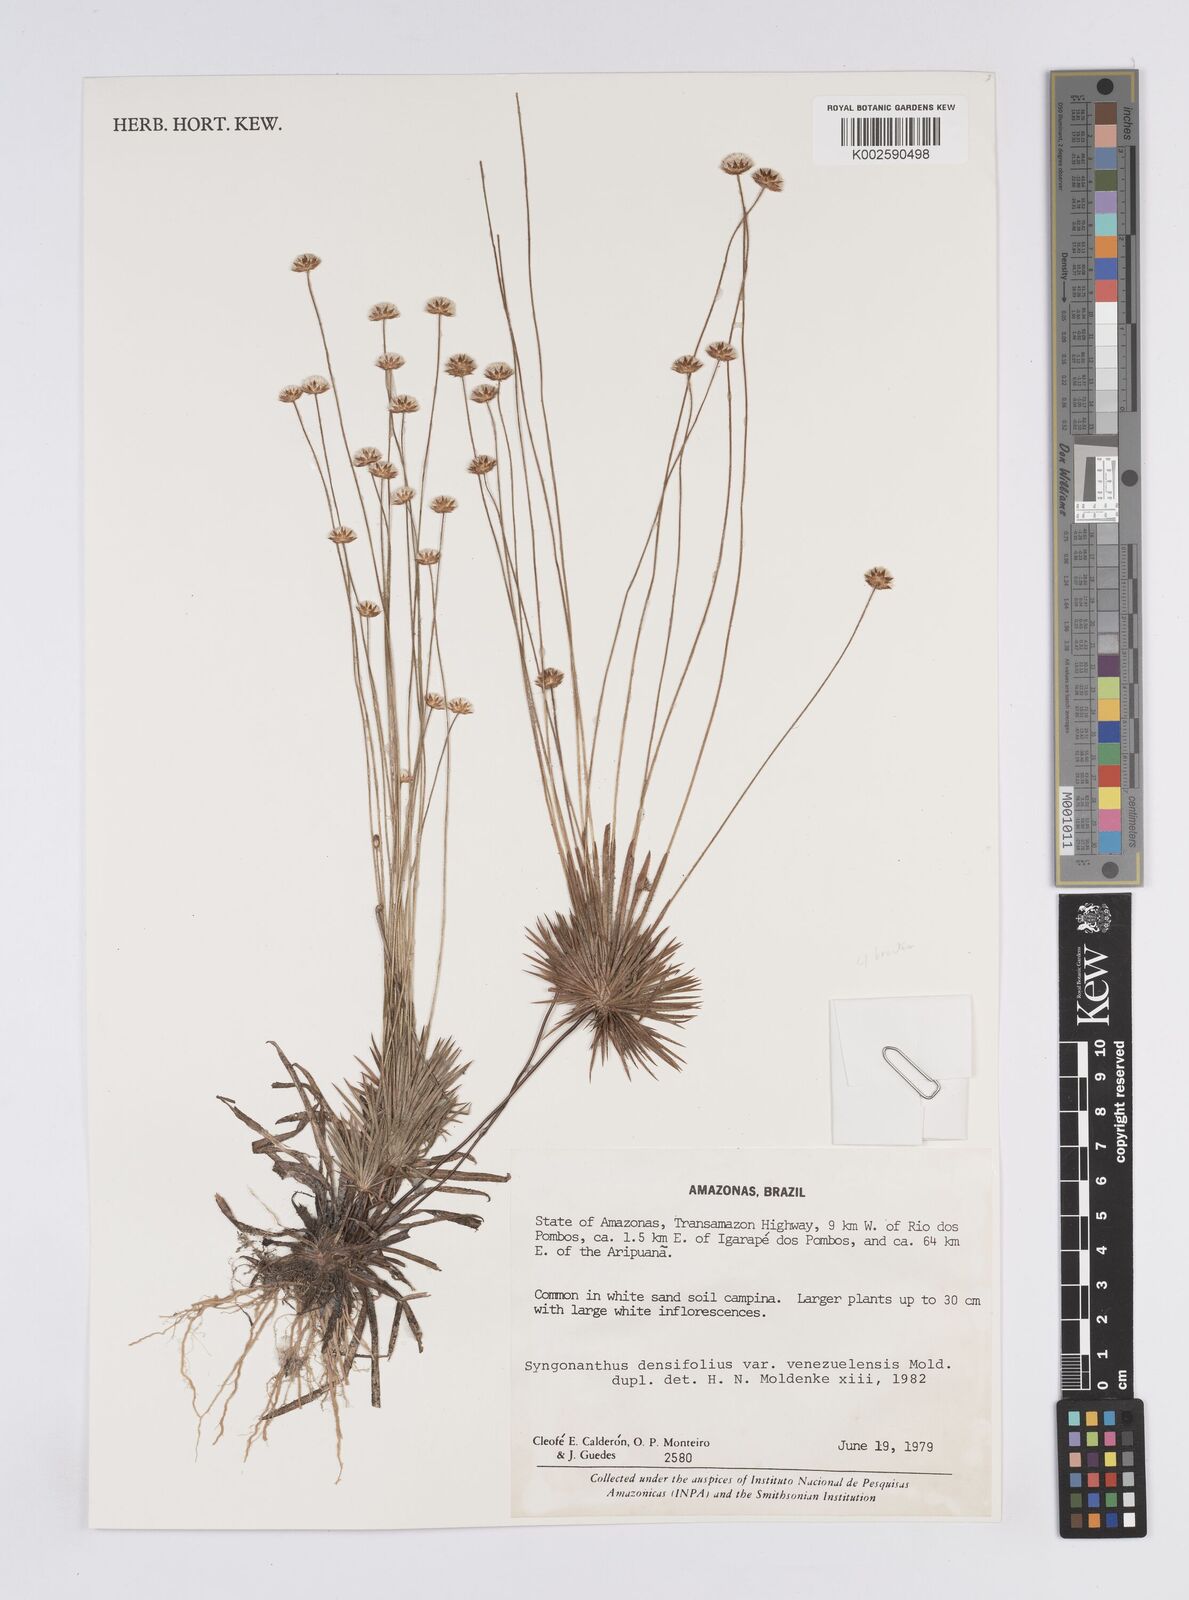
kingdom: Plantae
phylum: Tracheophyta
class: Liliopsida
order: Poales
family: Eriocaulaceae
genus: Syngonanthus
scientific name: Syngonanthus ottohuberi
